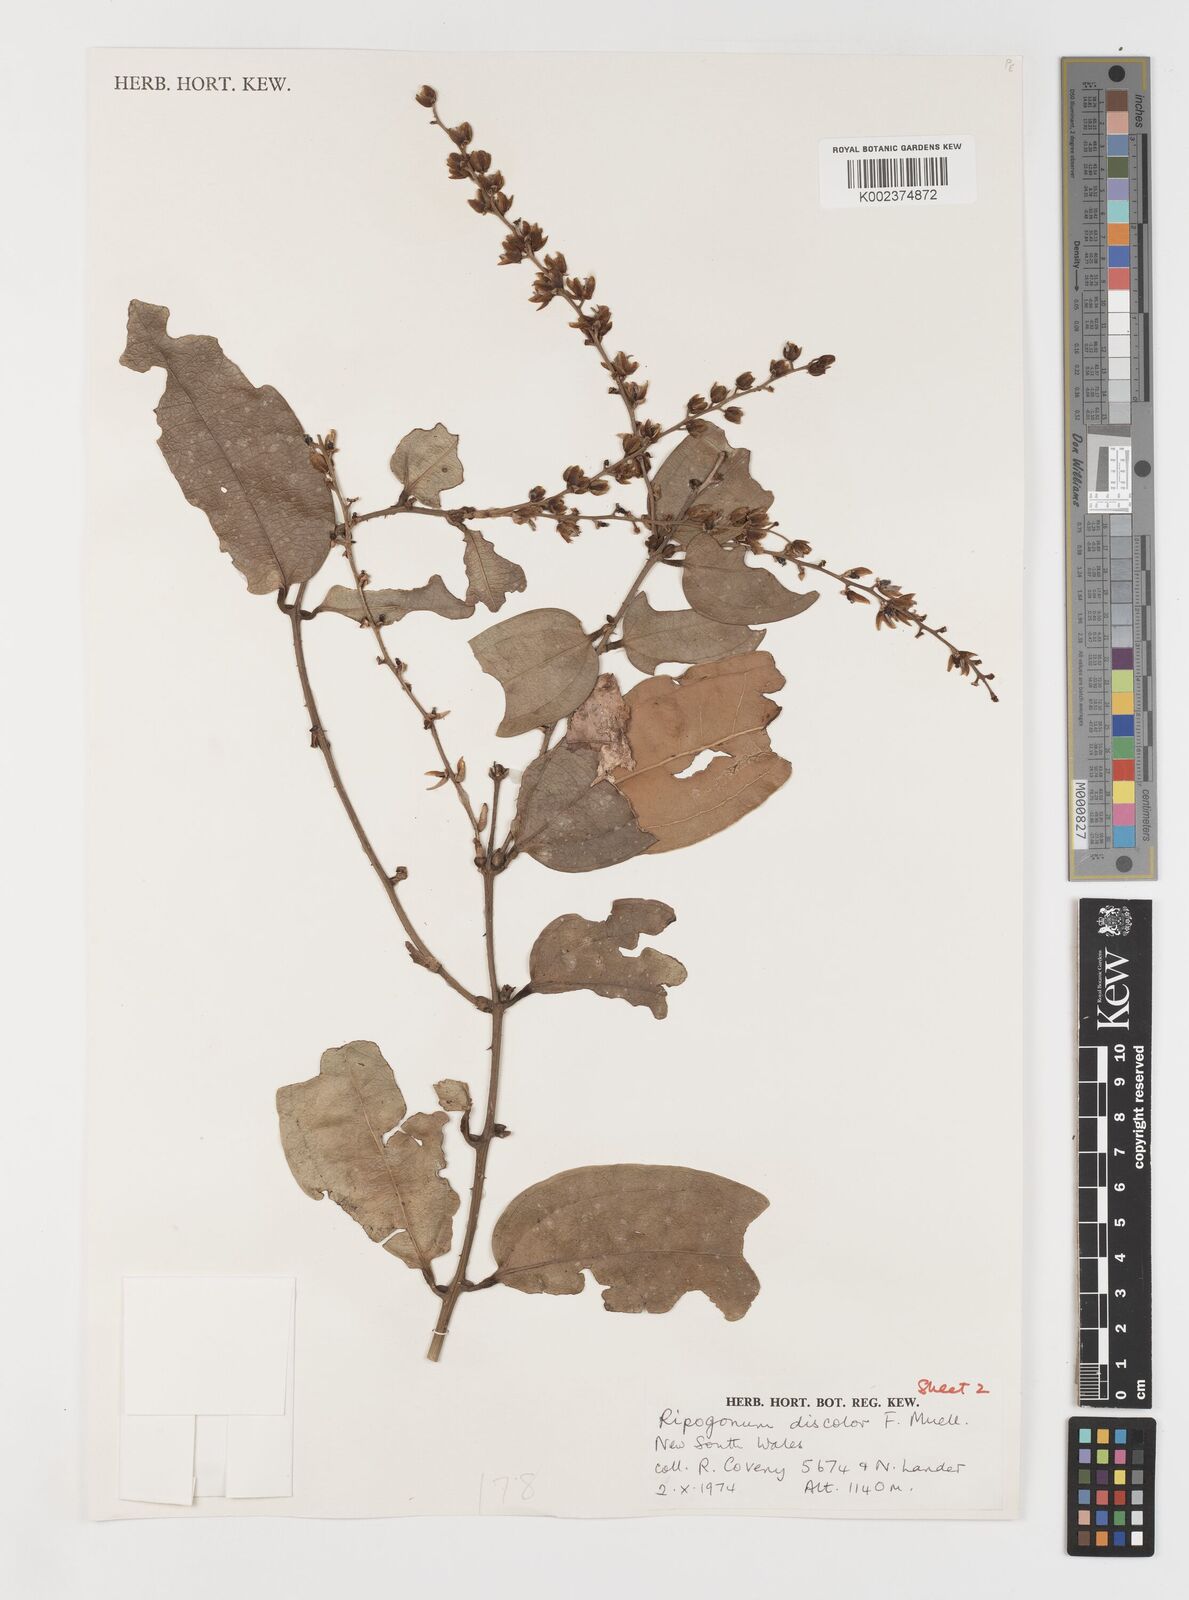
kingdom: Plantae
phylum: Tracheophyta
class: Liliopsida
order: Liliales
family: Ripogonaceae
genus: Ripogonum
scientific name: Ripogonum discolor
